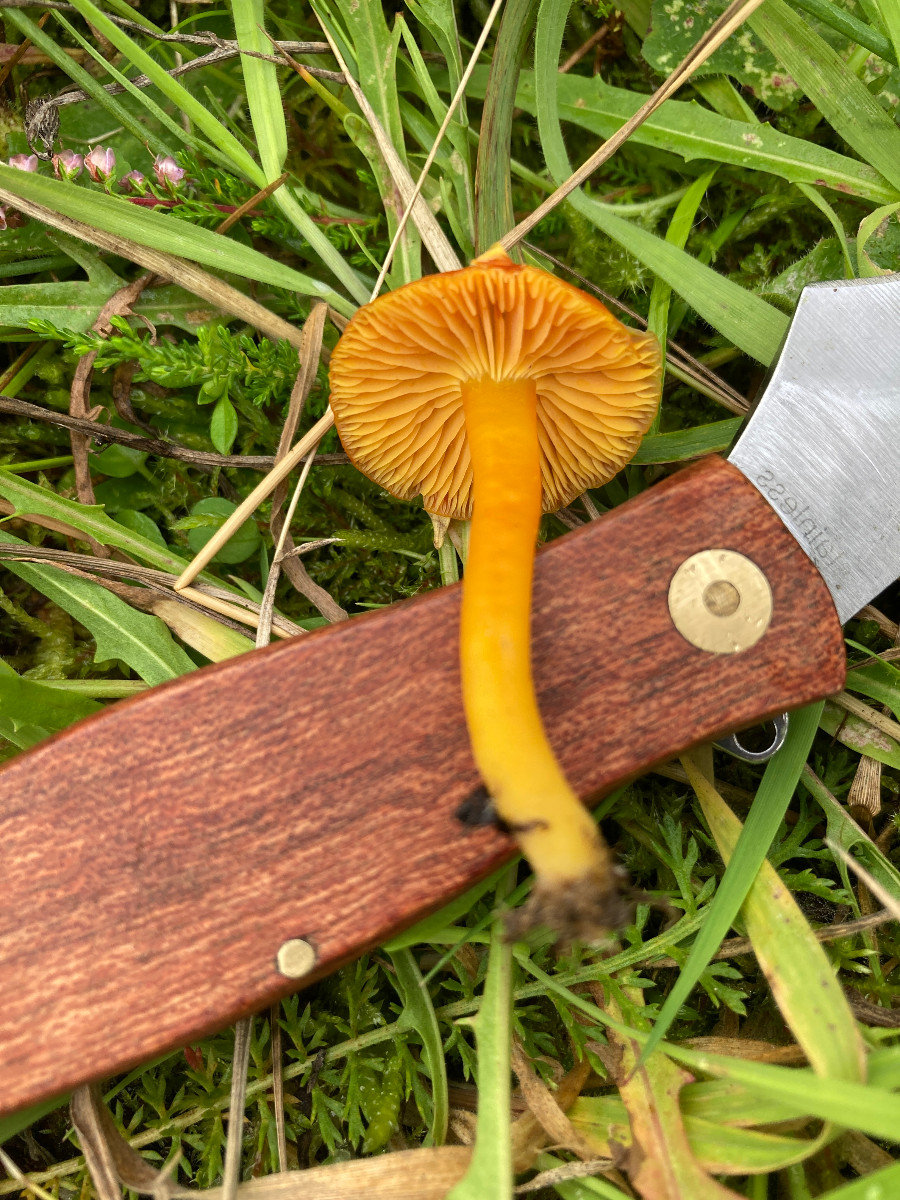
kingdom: Fungi
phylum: Basidiomycota
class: Agaricomycetes
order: Agaricales
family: Hygrophoraceae
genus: Hygrocybe
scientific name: Hygrocybe miniata
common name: mønje-vokshat
